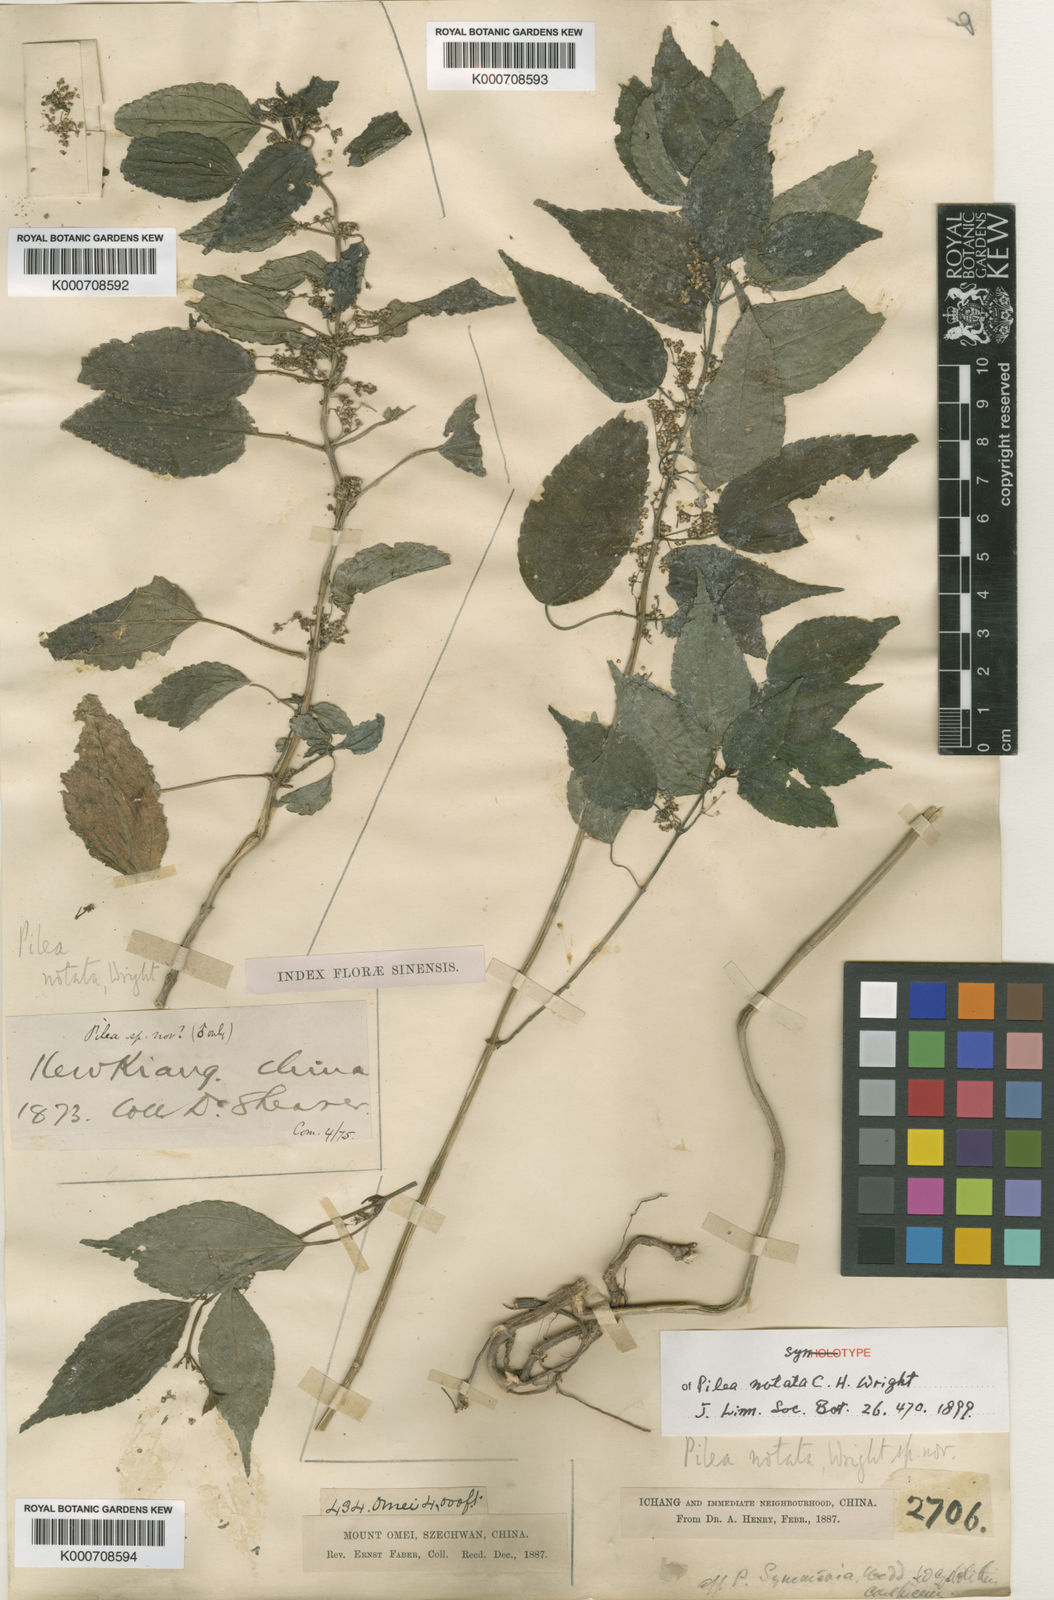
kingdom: Plantae
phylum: Tracheophyta
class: Magnoliopsida
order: Rosales
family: Urticaceae
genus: Pilea
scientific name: Pilea notata
